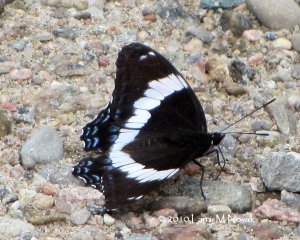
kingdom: Animalia
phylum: Arthropoda
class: Insecta
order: Lepidoptera
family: Nymphalidae
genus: Limenitis
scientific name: Limenitis arthemis
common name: Red-spotted Admiral
